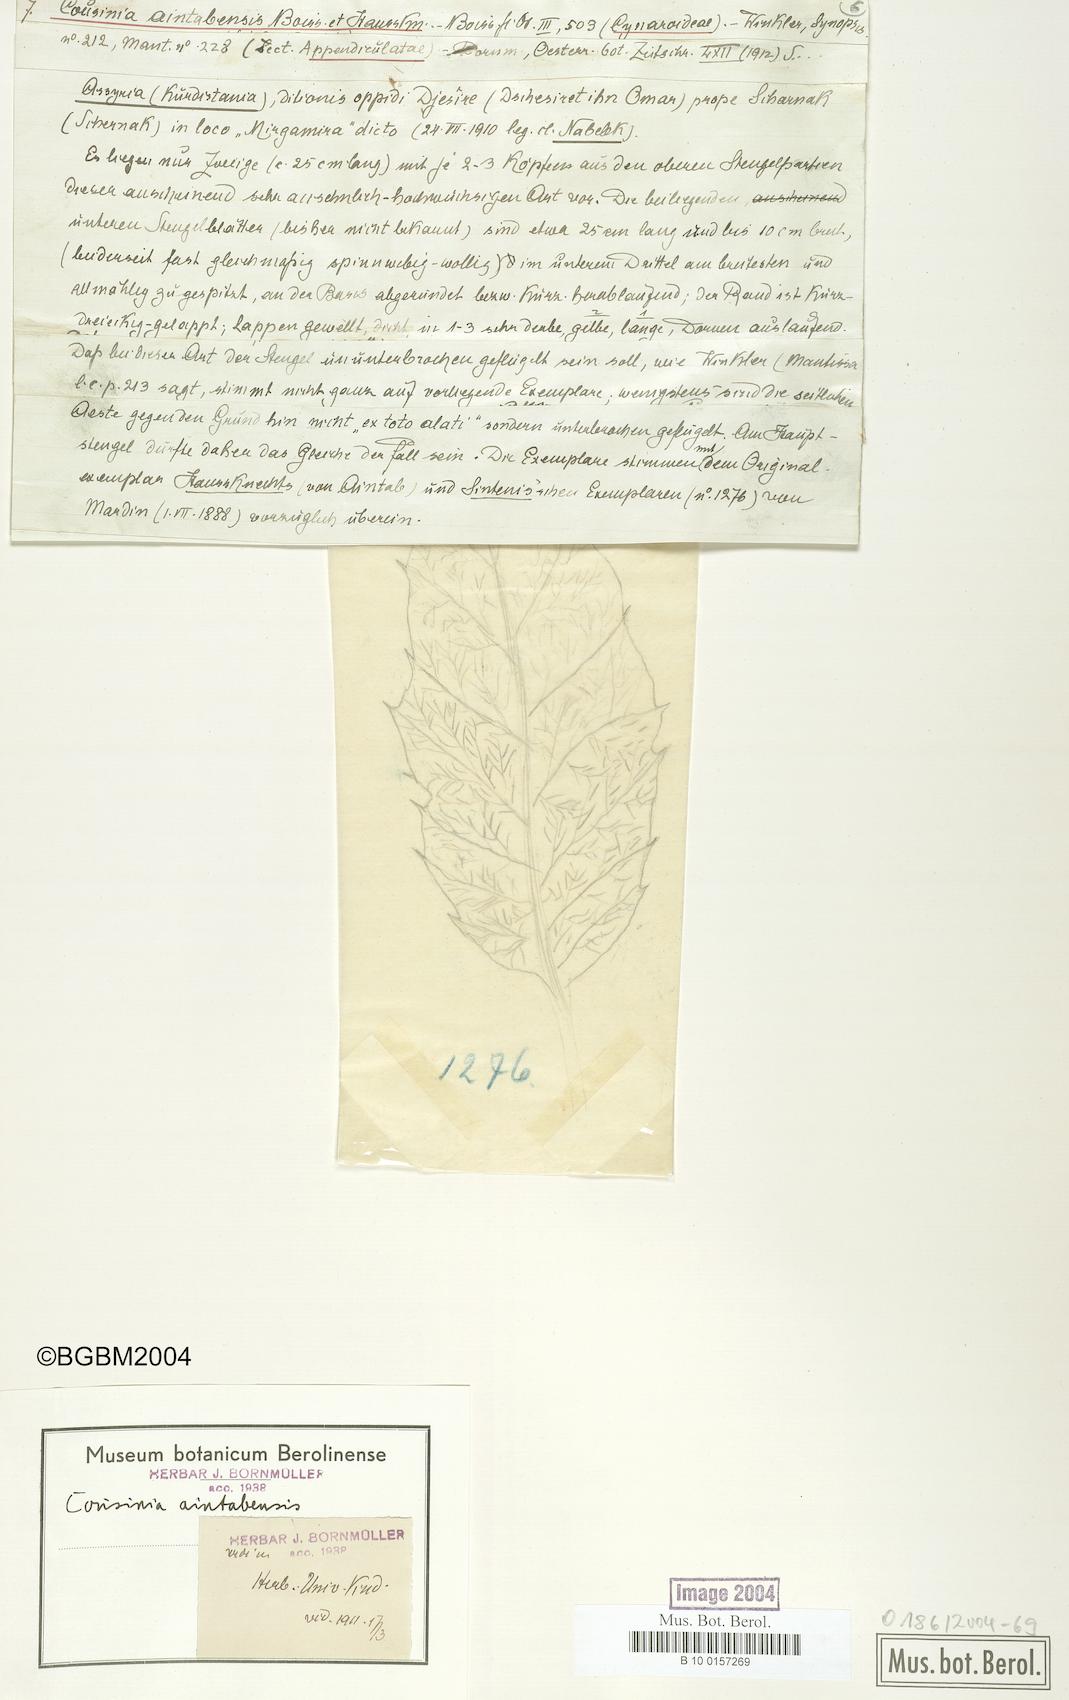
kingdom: Plantae
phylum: Tracheophyta
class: Magnoliopsida
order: Asterales
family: Asteraceae
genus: Cousinia
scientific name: Cousinia aintabensis
